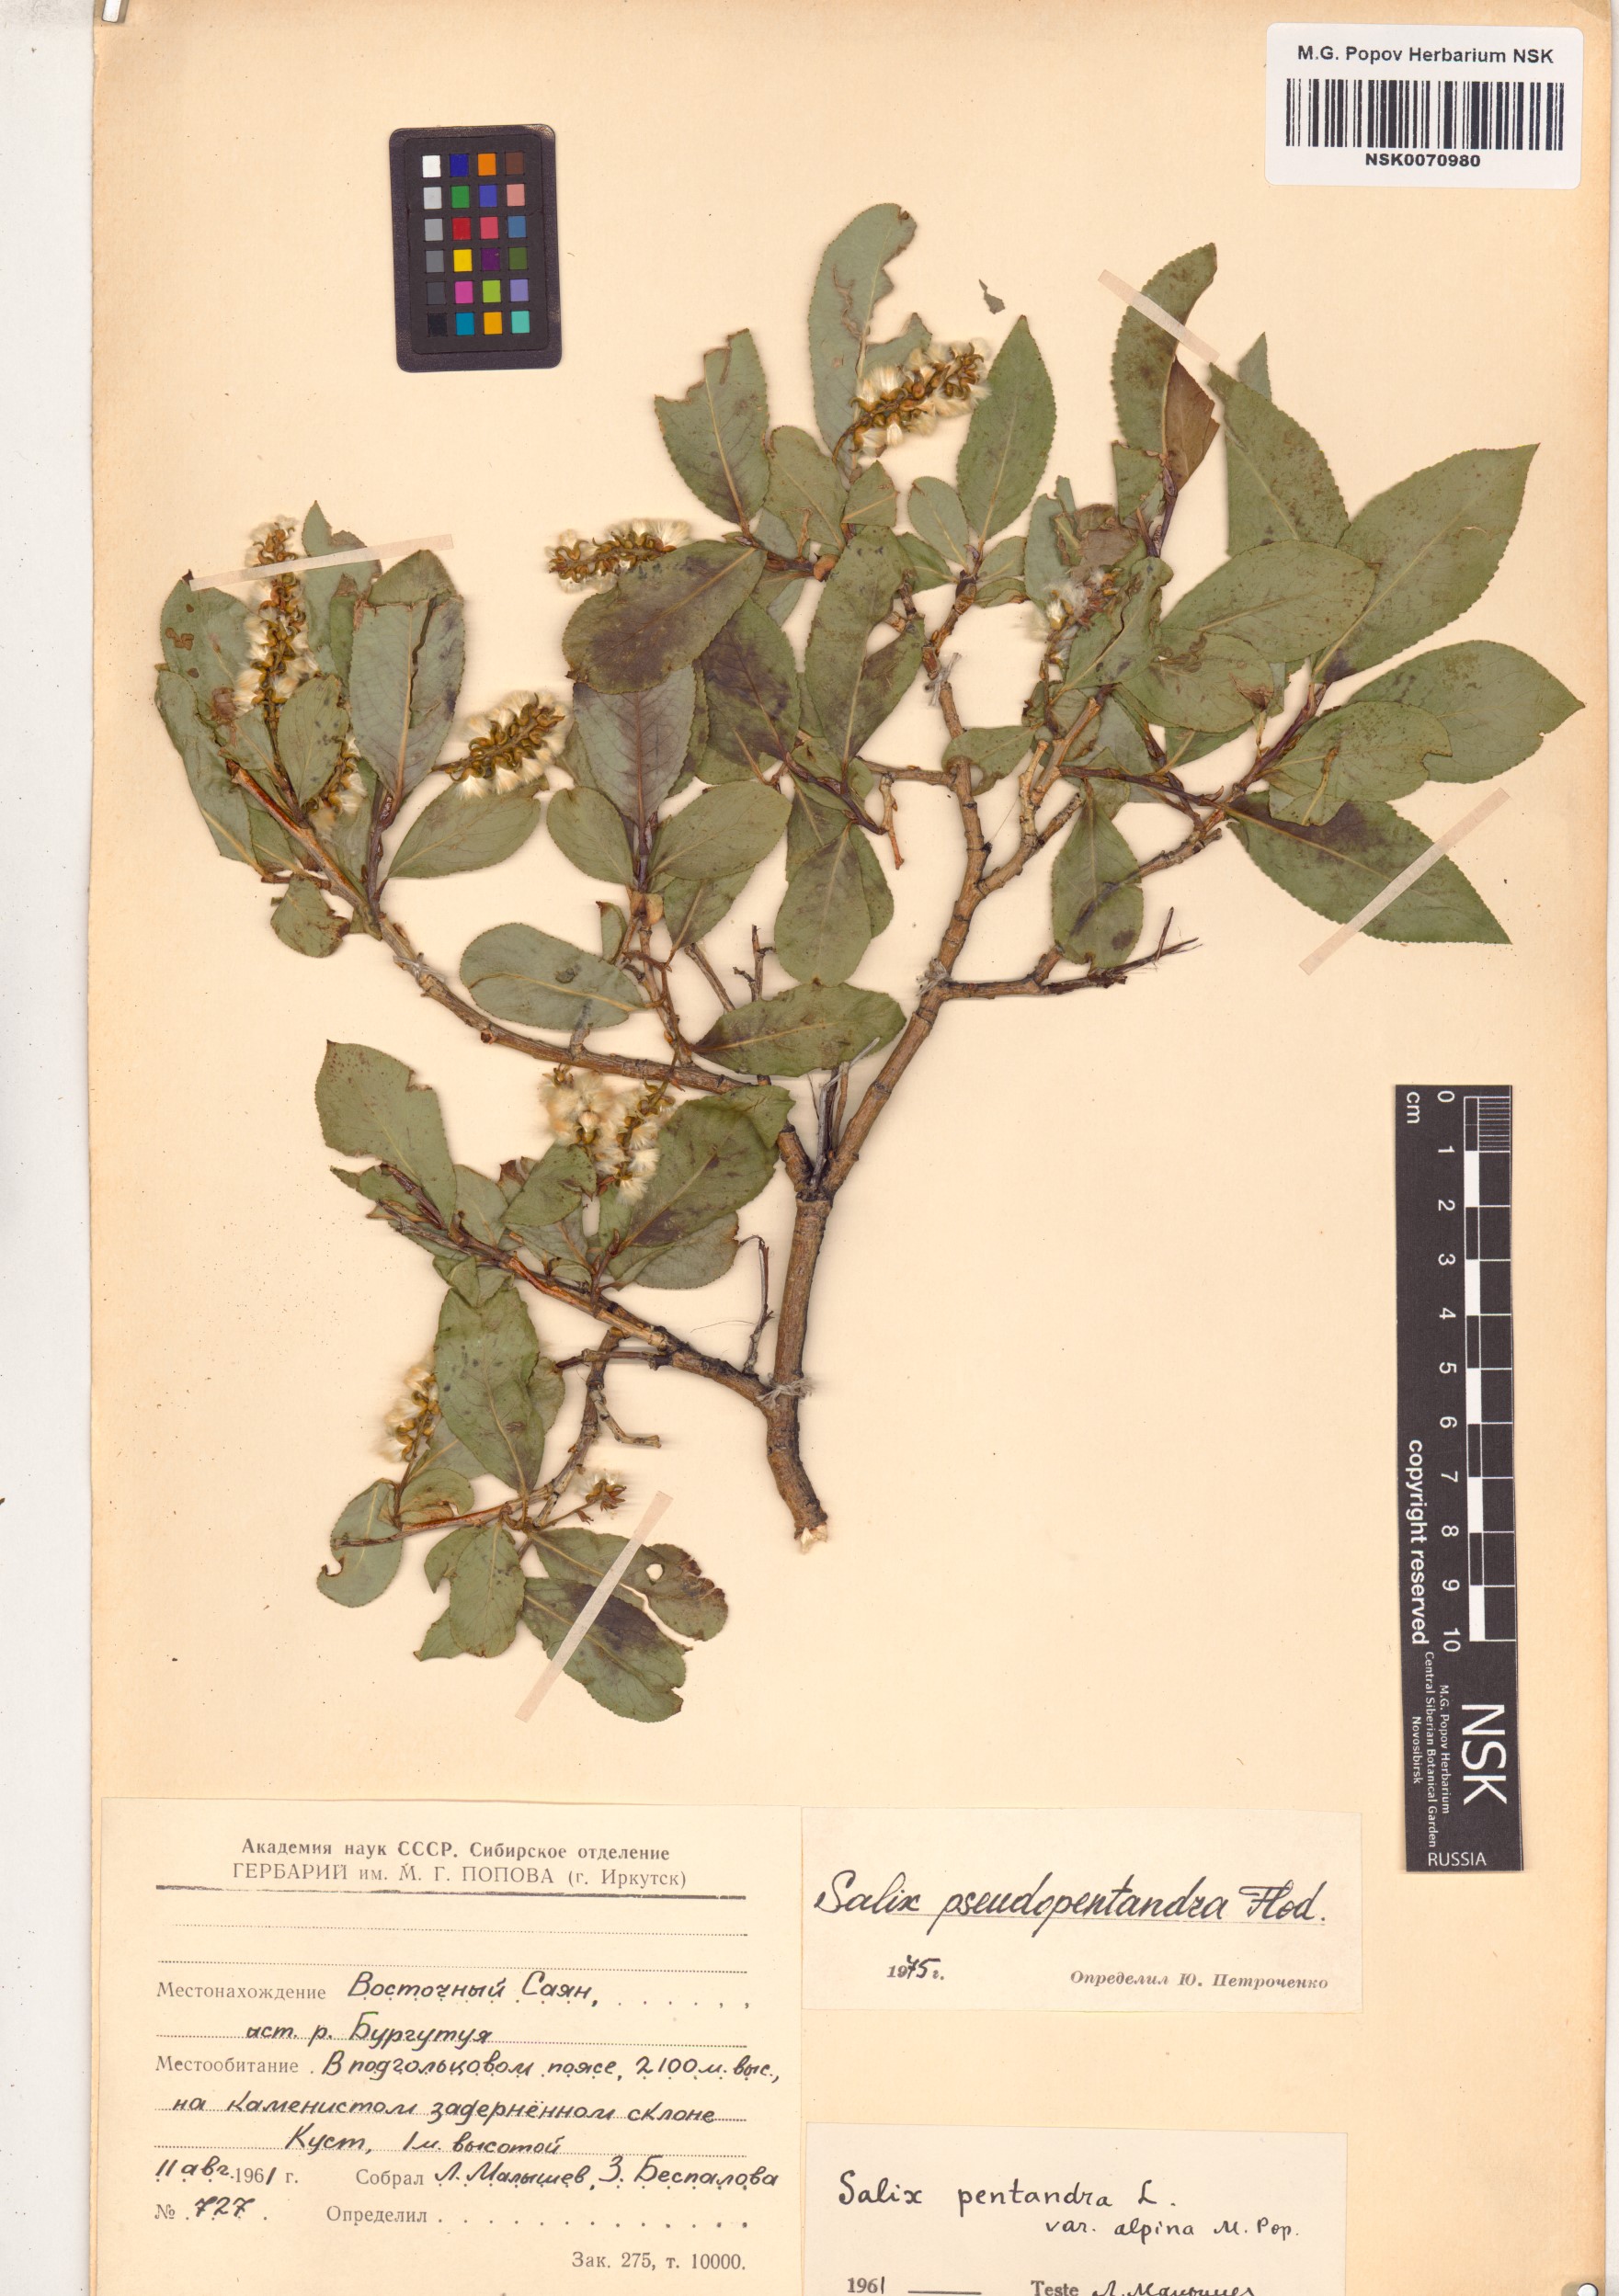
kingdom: Plantae
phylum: Tracheophyta
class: Magnoliopsida
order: Malpighiales
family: Salicaceae
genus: Salix
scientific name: Salix pseudopentandra
